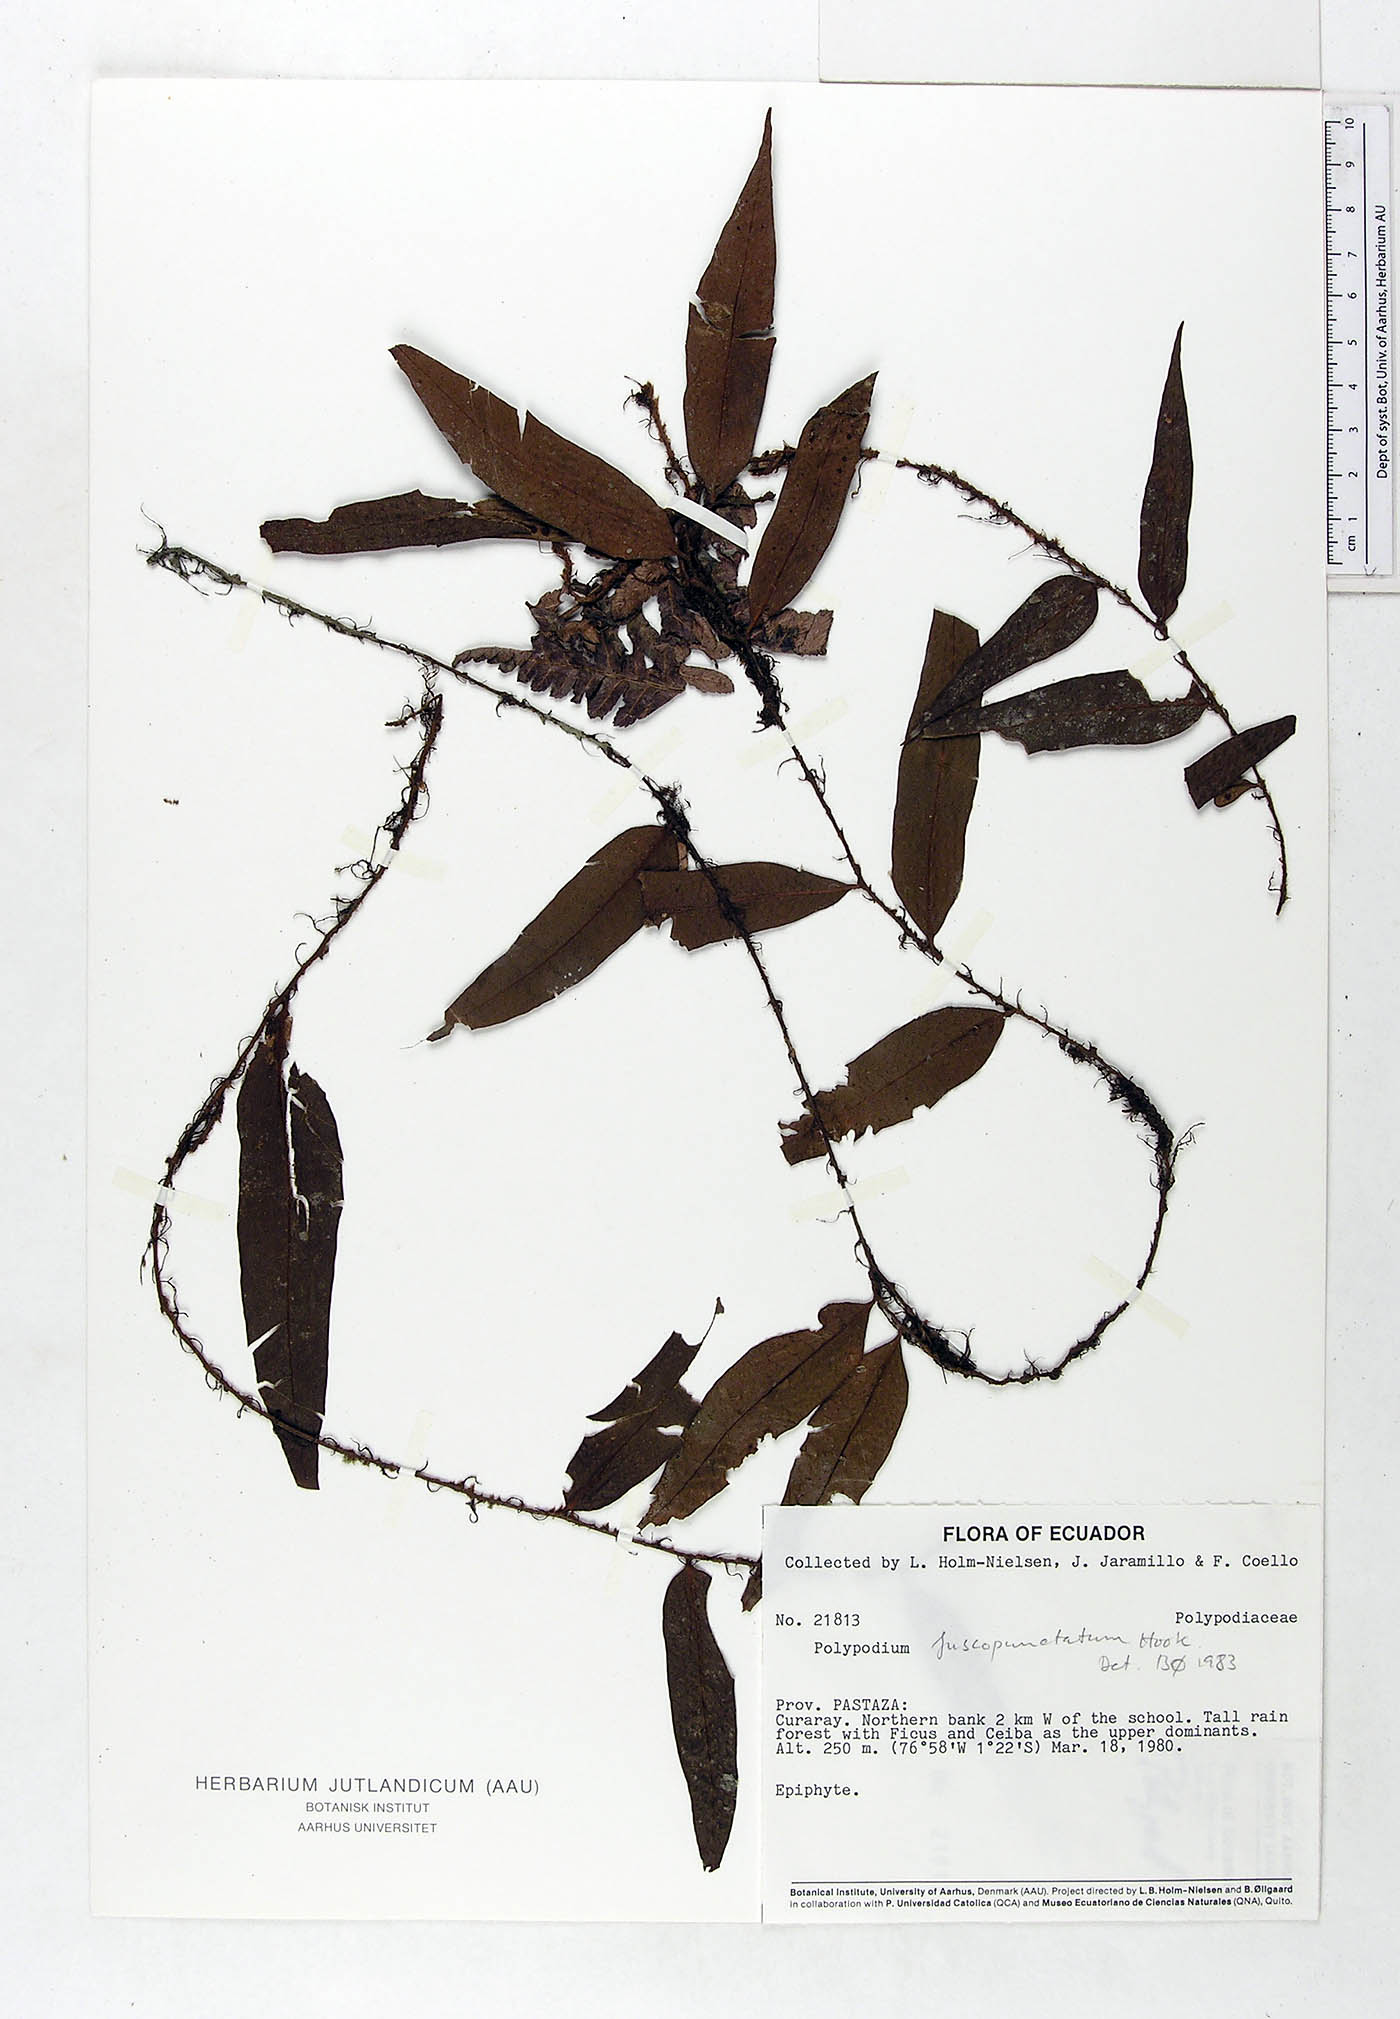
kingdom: Plantae
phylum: Tracheophyta
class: Polypodiopsida
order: Polypodiales
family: Polypodiaceae
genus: Microgramma
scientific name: Microgramma dictyophylla
